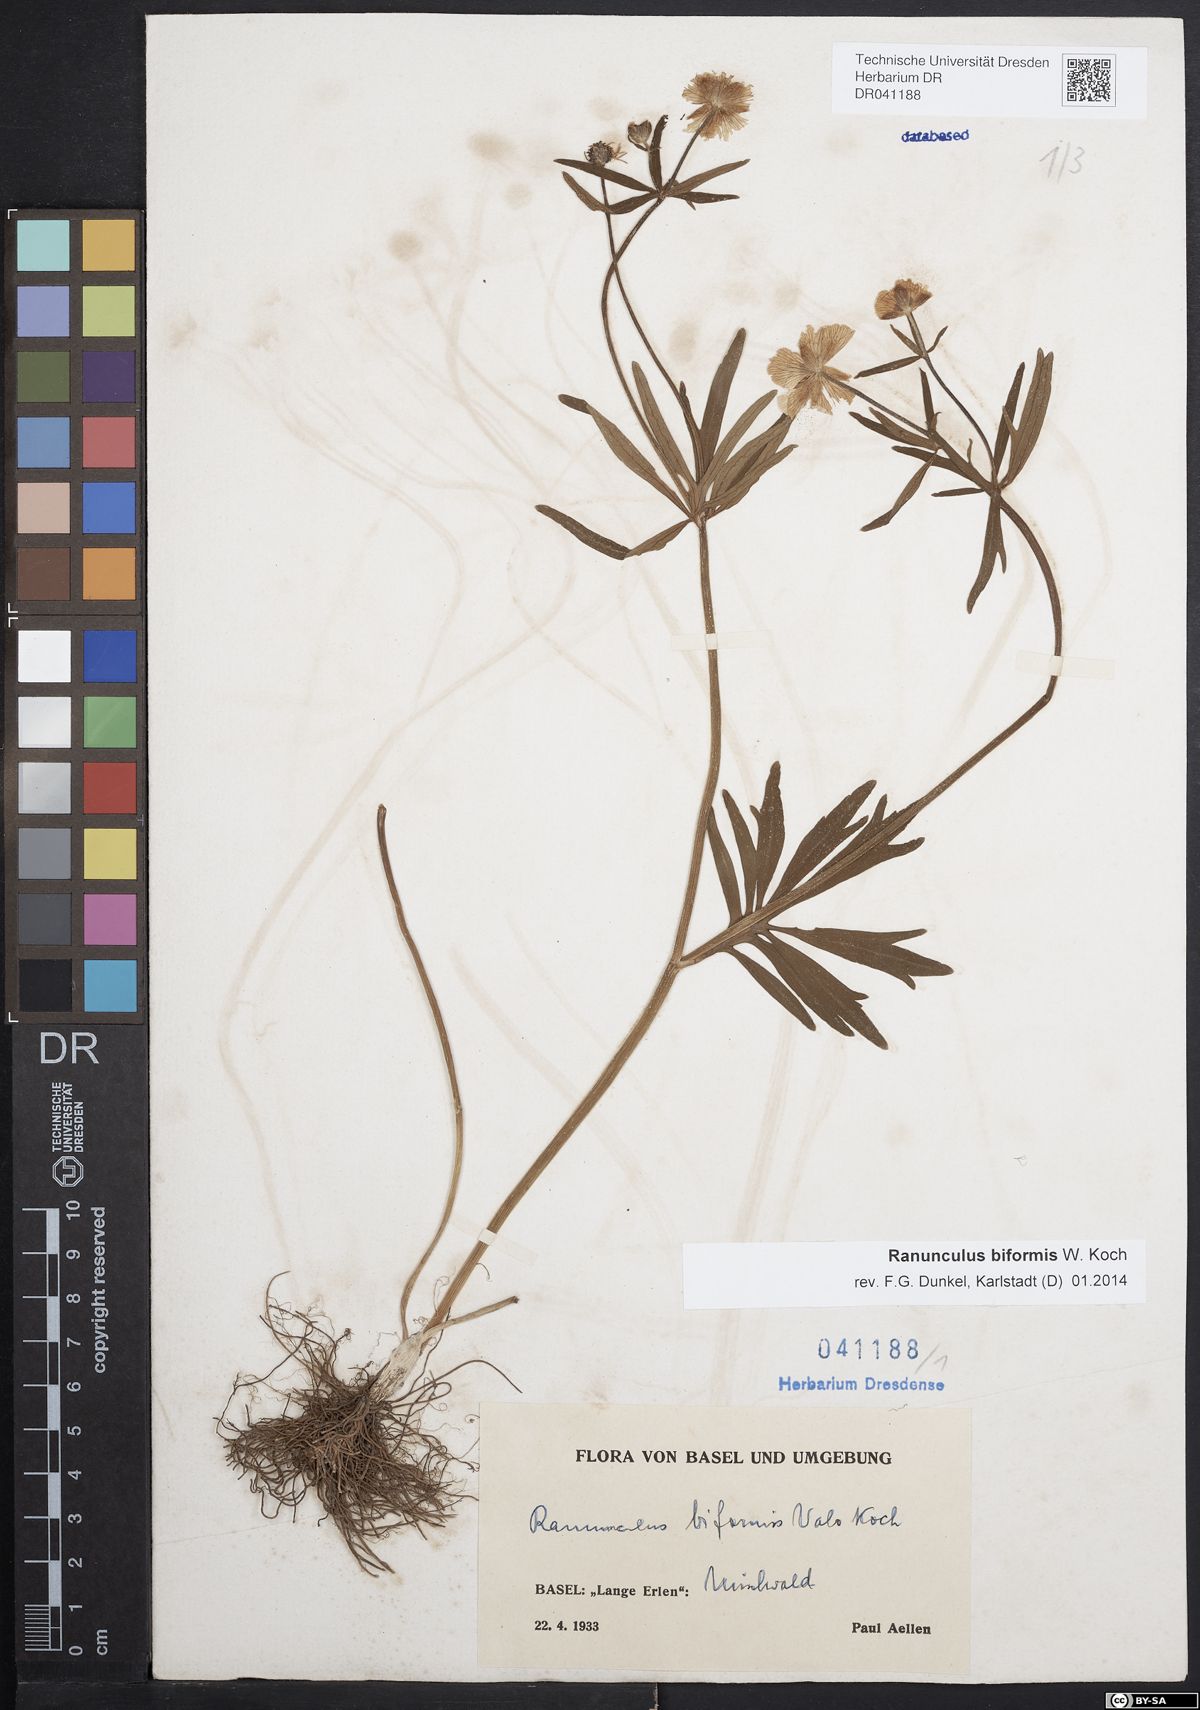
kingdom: Plantae
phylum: Tracheophyta
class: Magnoliopsida
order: Ranunculales
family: Ranunculaceae
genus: Ranunculus
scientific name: Ranunculus biformis
